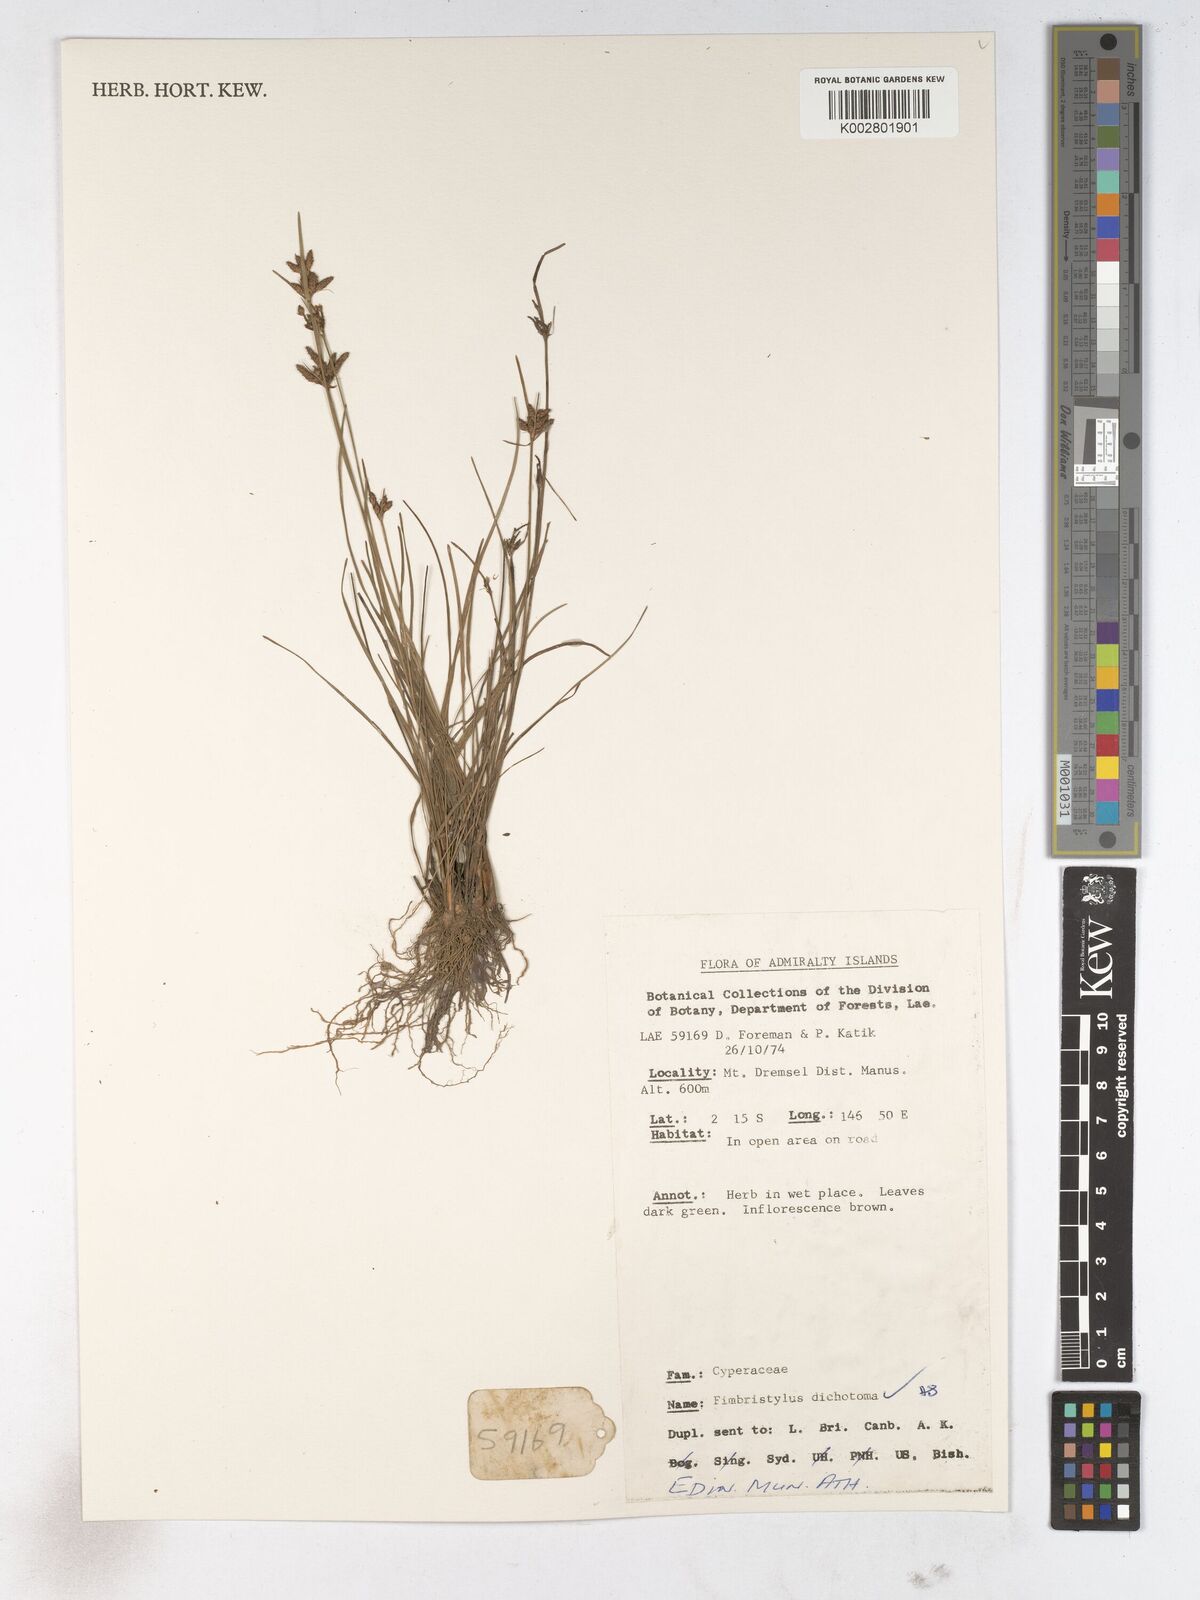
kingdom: Plantae
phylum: Tracheophyta
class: Liliopsida
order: Poales
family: Cyperaceae
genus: Fimbristylis
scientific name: Fimbristylis dichotoma
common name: Forked fimbry
